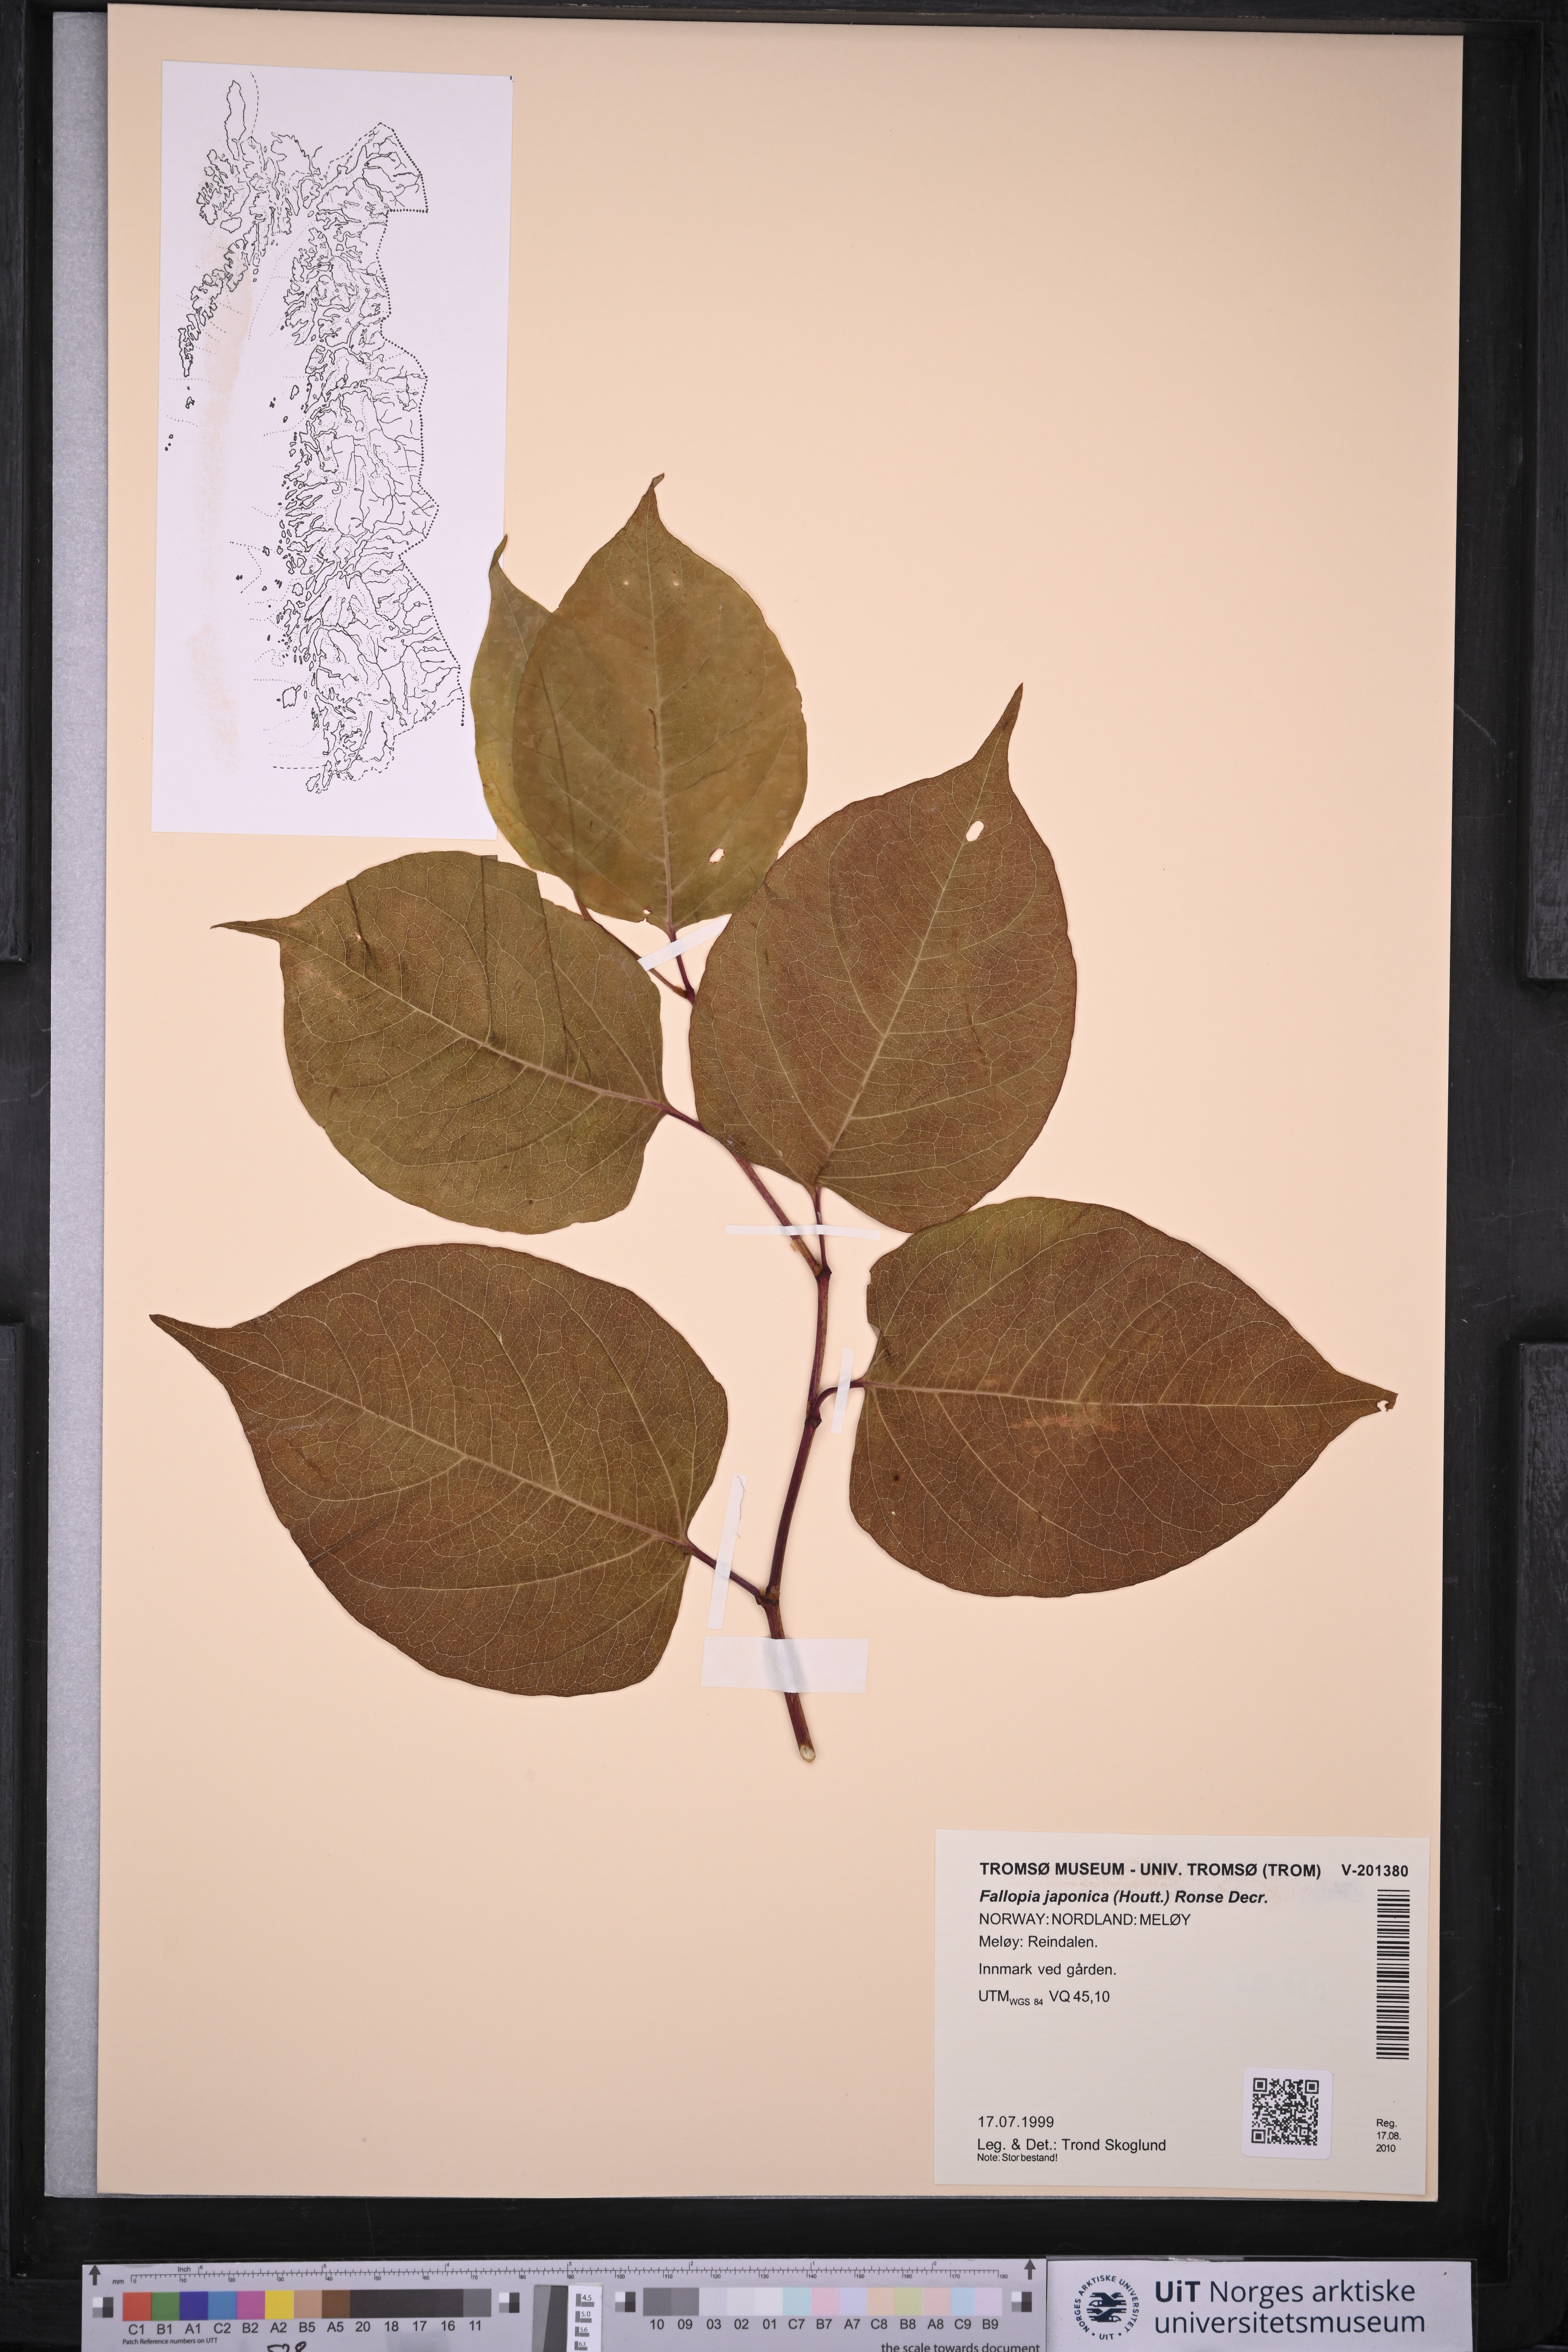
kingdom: Plantae
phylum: Tracheophyta
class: Magnoliopsida
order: Caryophyllales
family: Polygonaceae
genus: Reynoutria
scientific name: Reynoutria japonica
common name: Japanese knotweed
